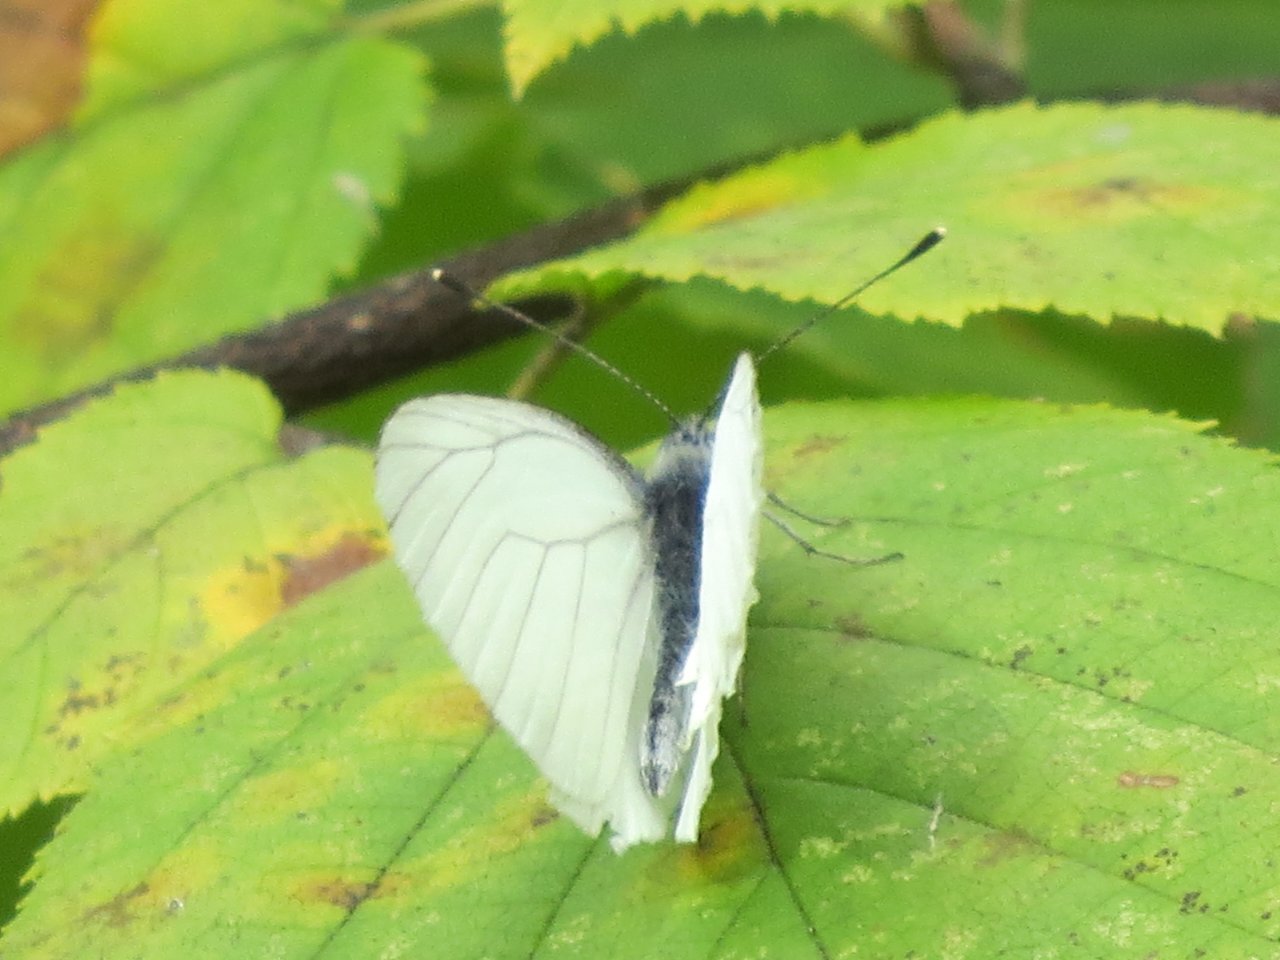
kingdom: Animalia
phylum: Arthropoda
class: Insecta
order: Lepidoptera
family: Pieridae
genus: Pieris
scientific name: Pieris oleracea
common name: Mustard White
